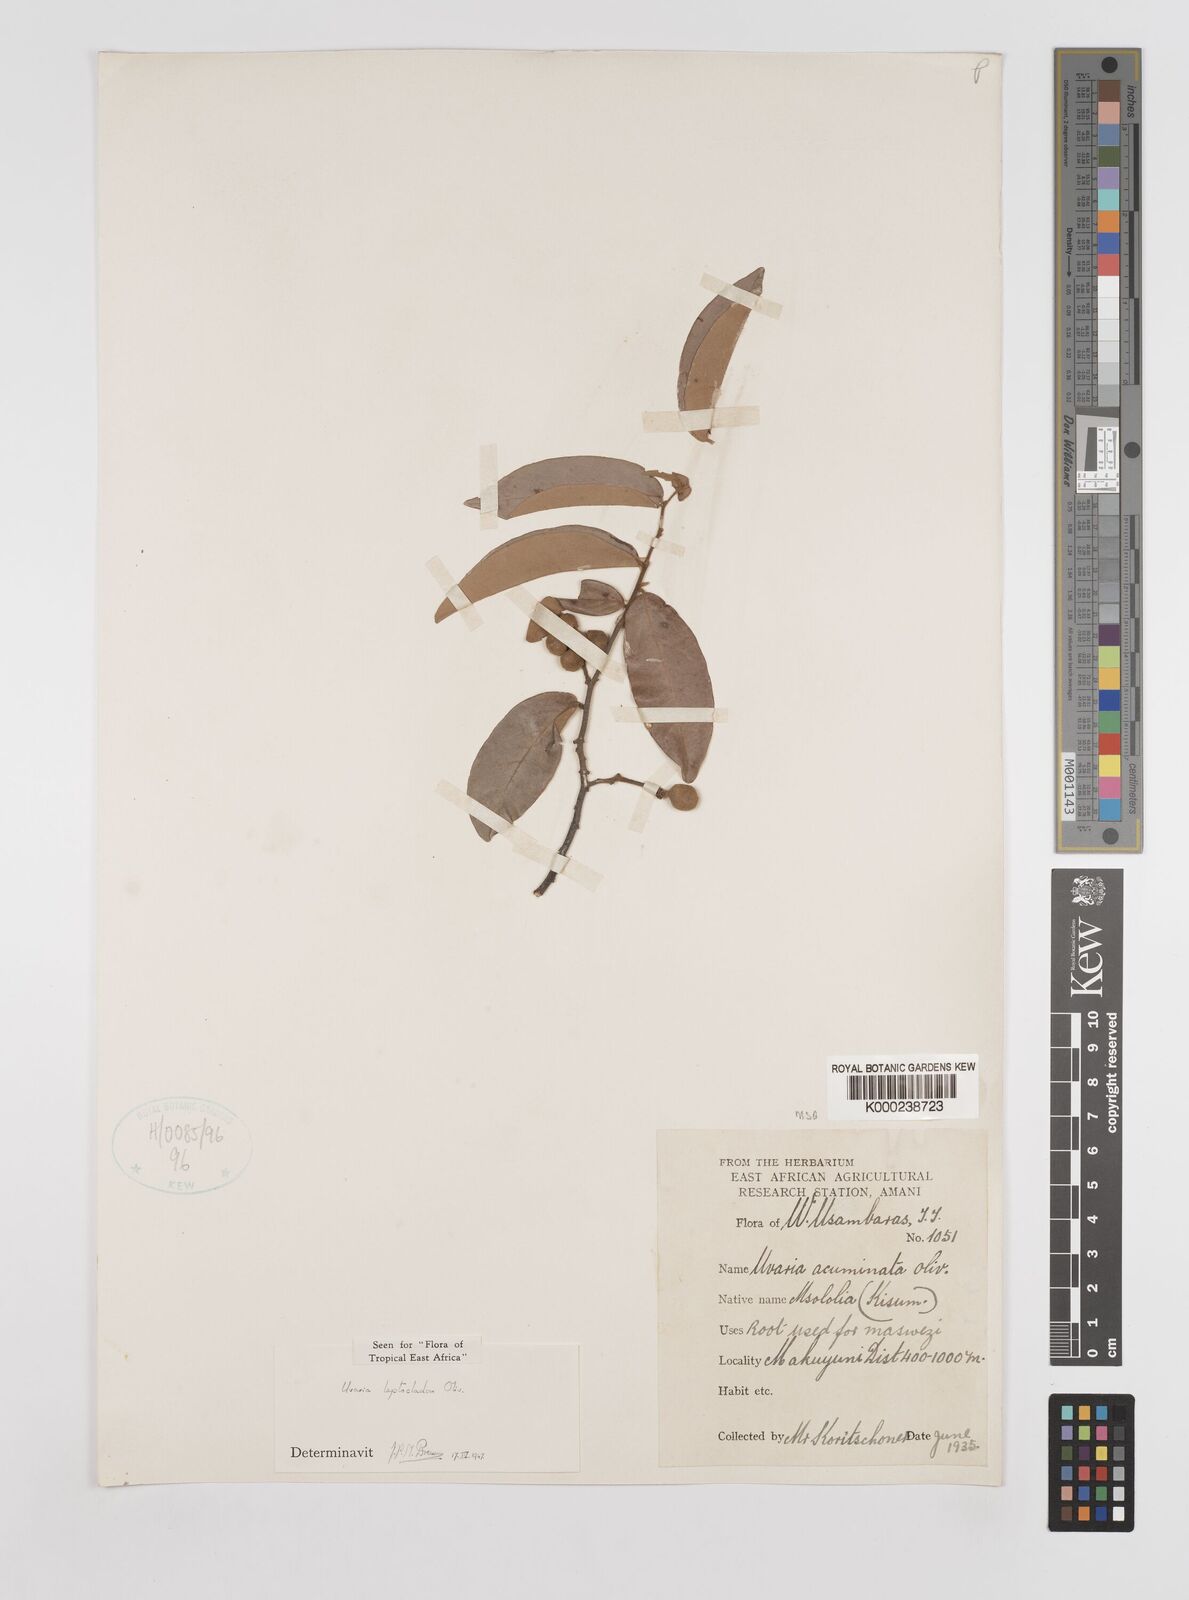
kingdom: Plantae
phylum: Tracheophyta
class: Magnoliopsida
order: Magnoliales
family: Annonaceae
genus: Uvaria
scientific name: Uvaria leptocladon
